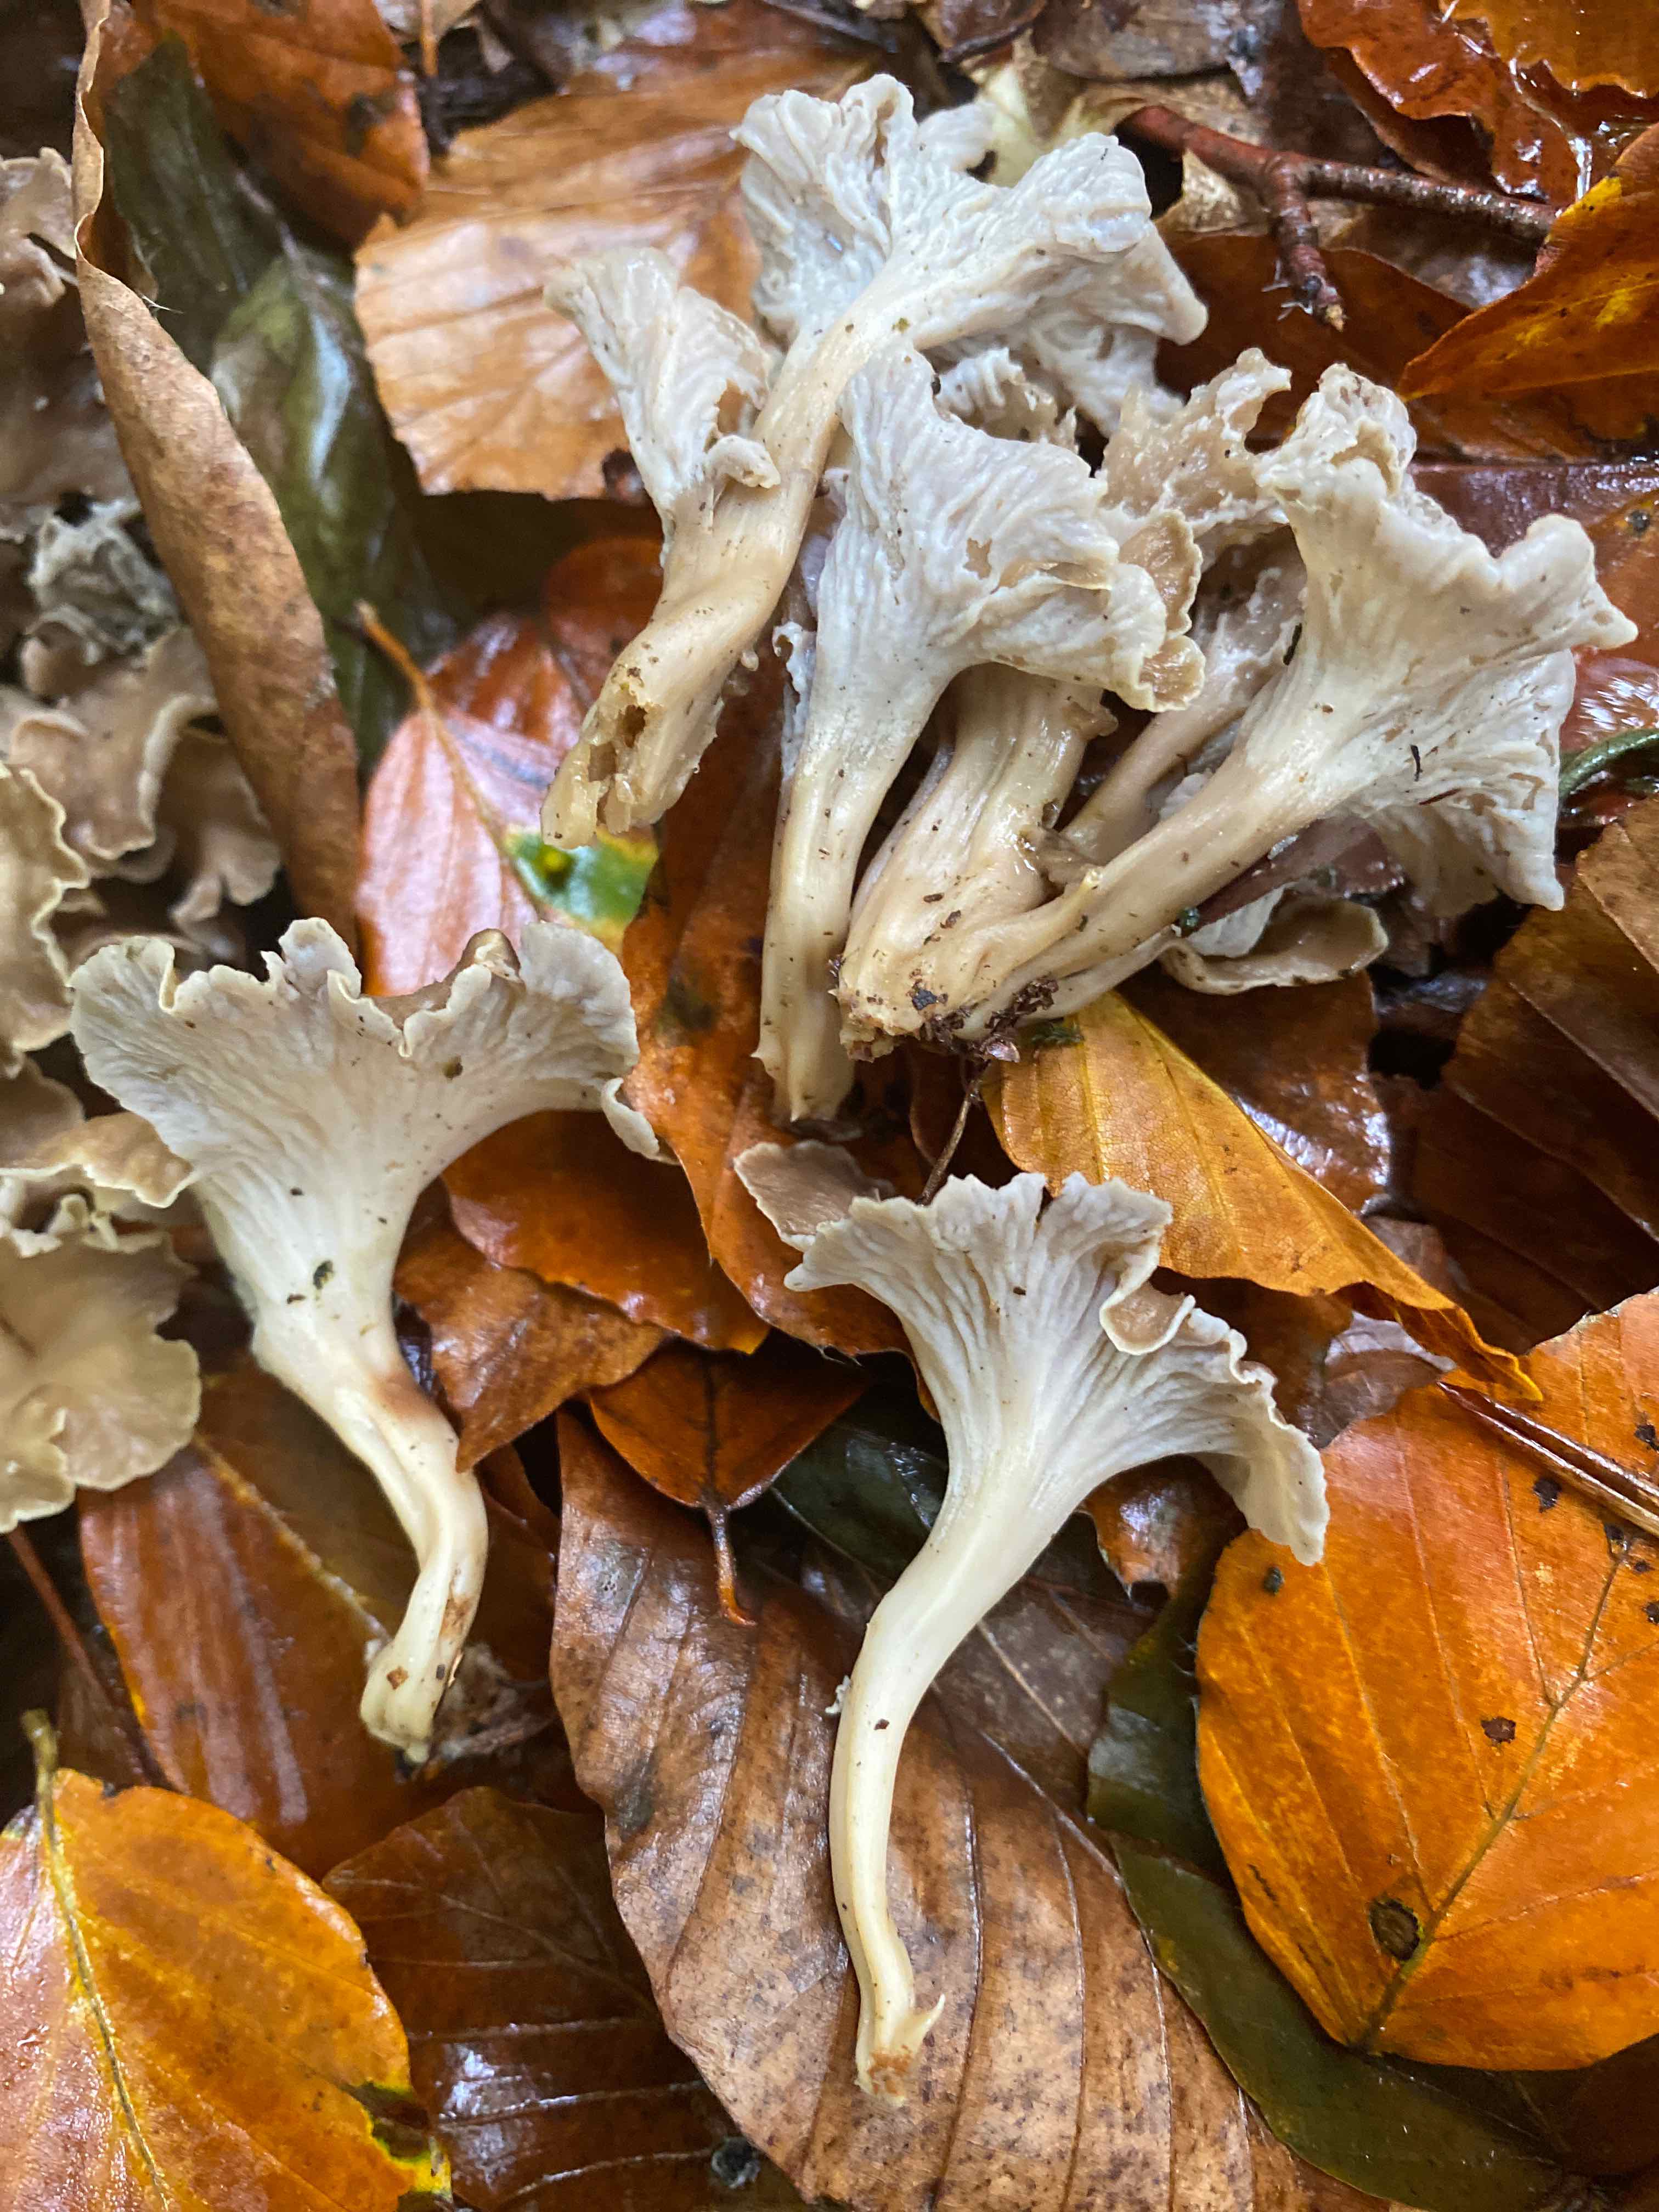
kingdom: Fungi
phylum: Basidiomycota
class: Agaricomycetes
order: Cantharellales
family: Hydnaceae
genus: Craterellus
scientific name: Craterellus undulatus
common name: liden kantarel
